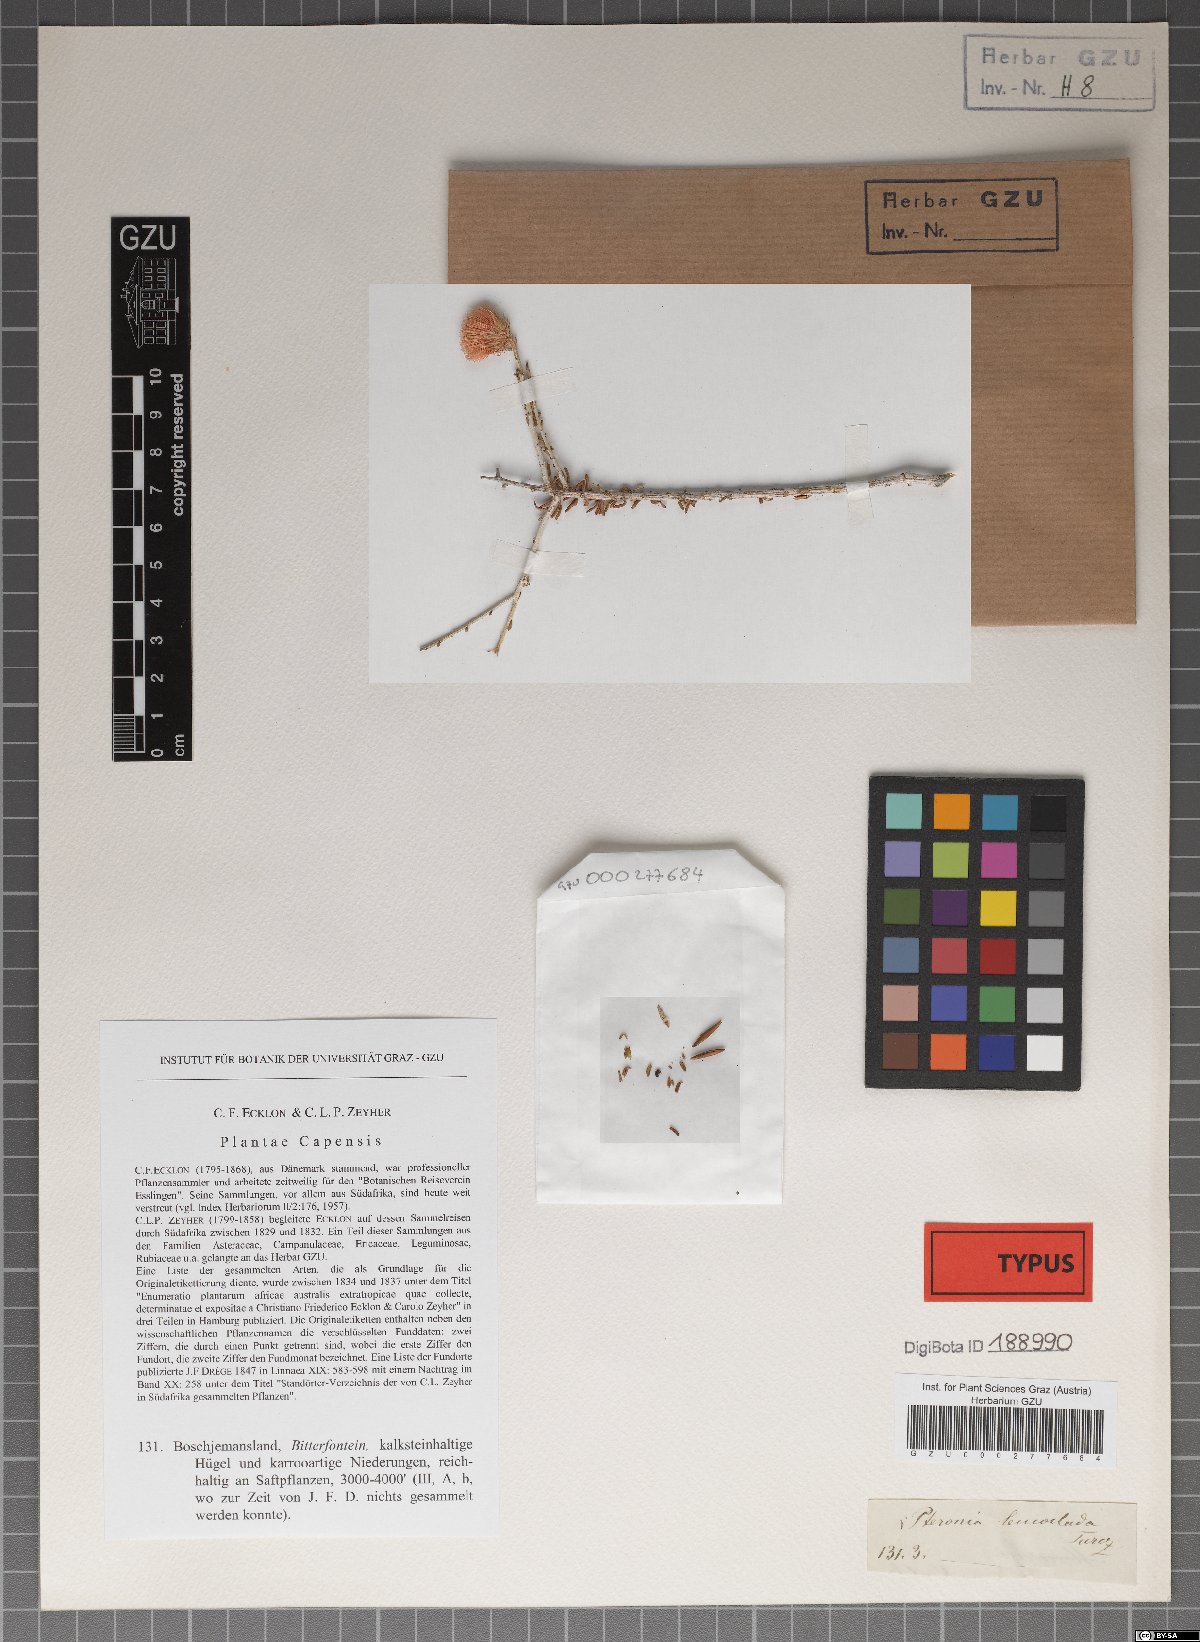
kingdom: Plantae
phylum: Tracheophyta
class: Magnoliopsida
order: Asterales
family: Asteraceae
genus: Pteronia
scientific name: Pteronia leucoclada
